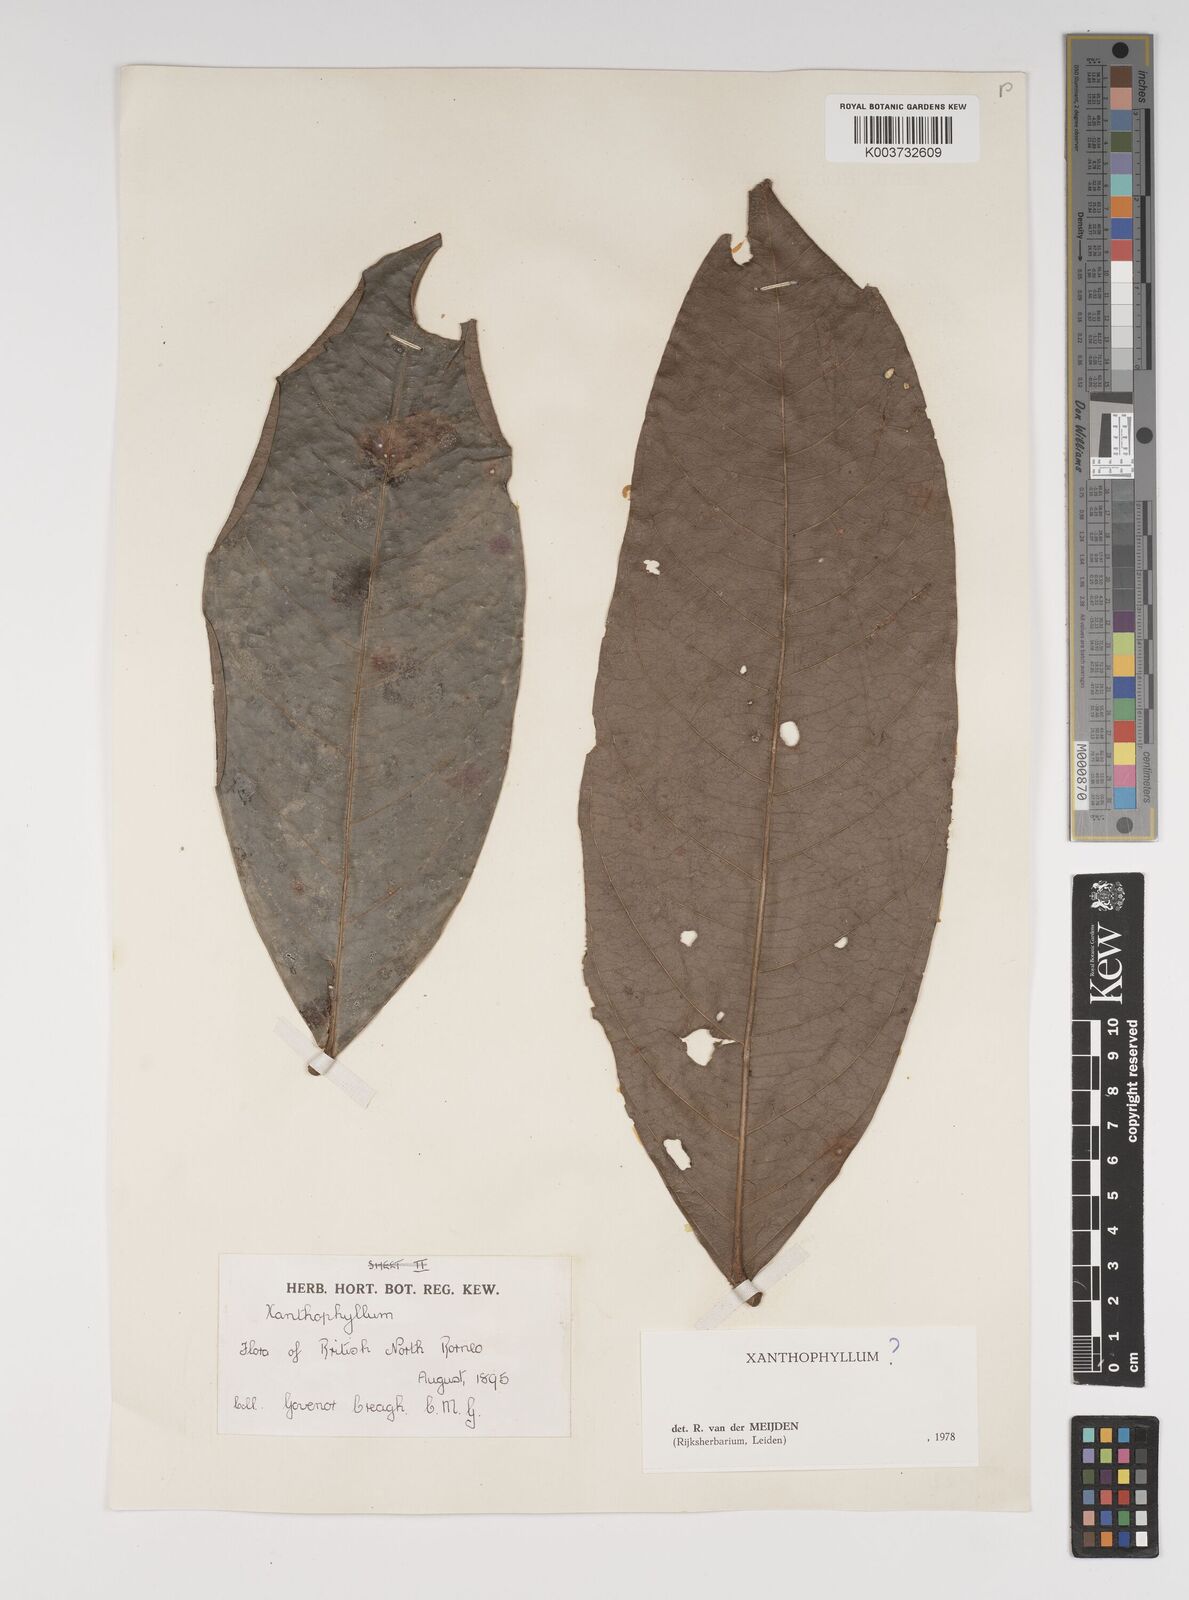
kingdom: Plantae
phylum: Tracheophyta
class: Magnoliopsida
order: Fabales
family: Polygalaceae
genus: Xanthophyllum
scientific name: Xanthophyllum
